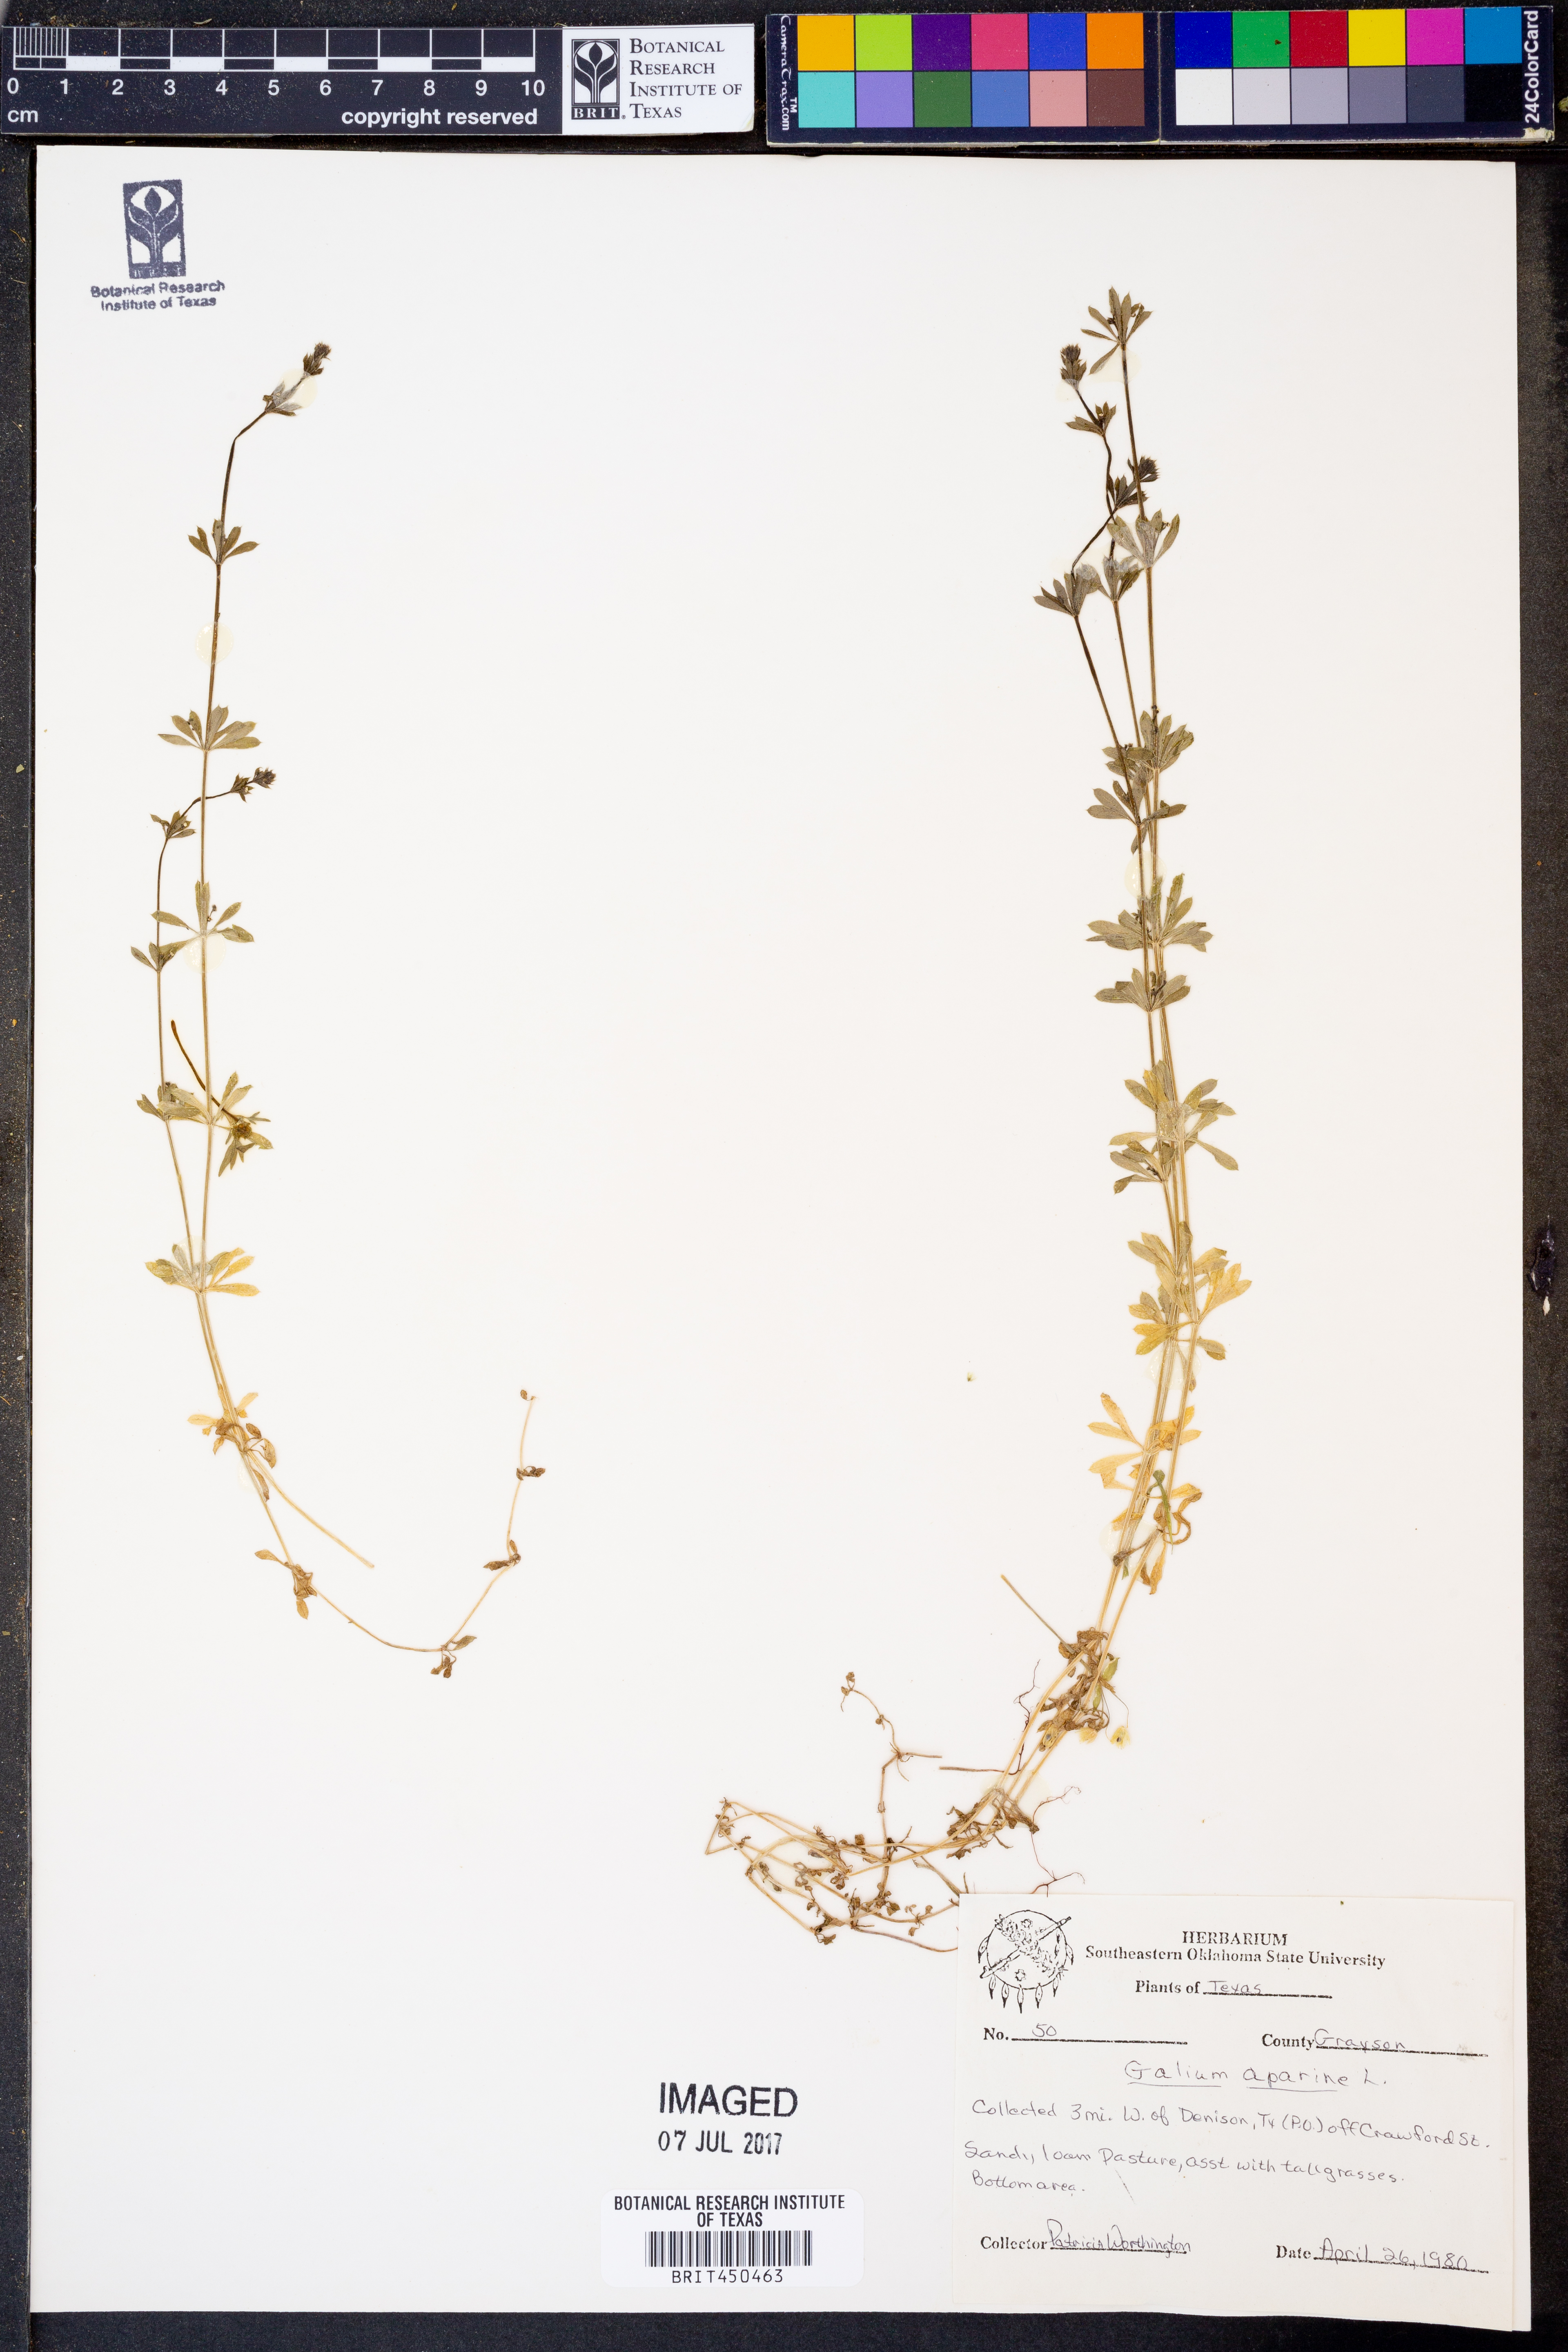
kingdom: Plantae
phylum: Tracheophyta
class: Magnoliopsida
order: Gentianales
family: Rubiaceae
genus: Galium
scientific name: Galium aparine
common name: Cleavers
